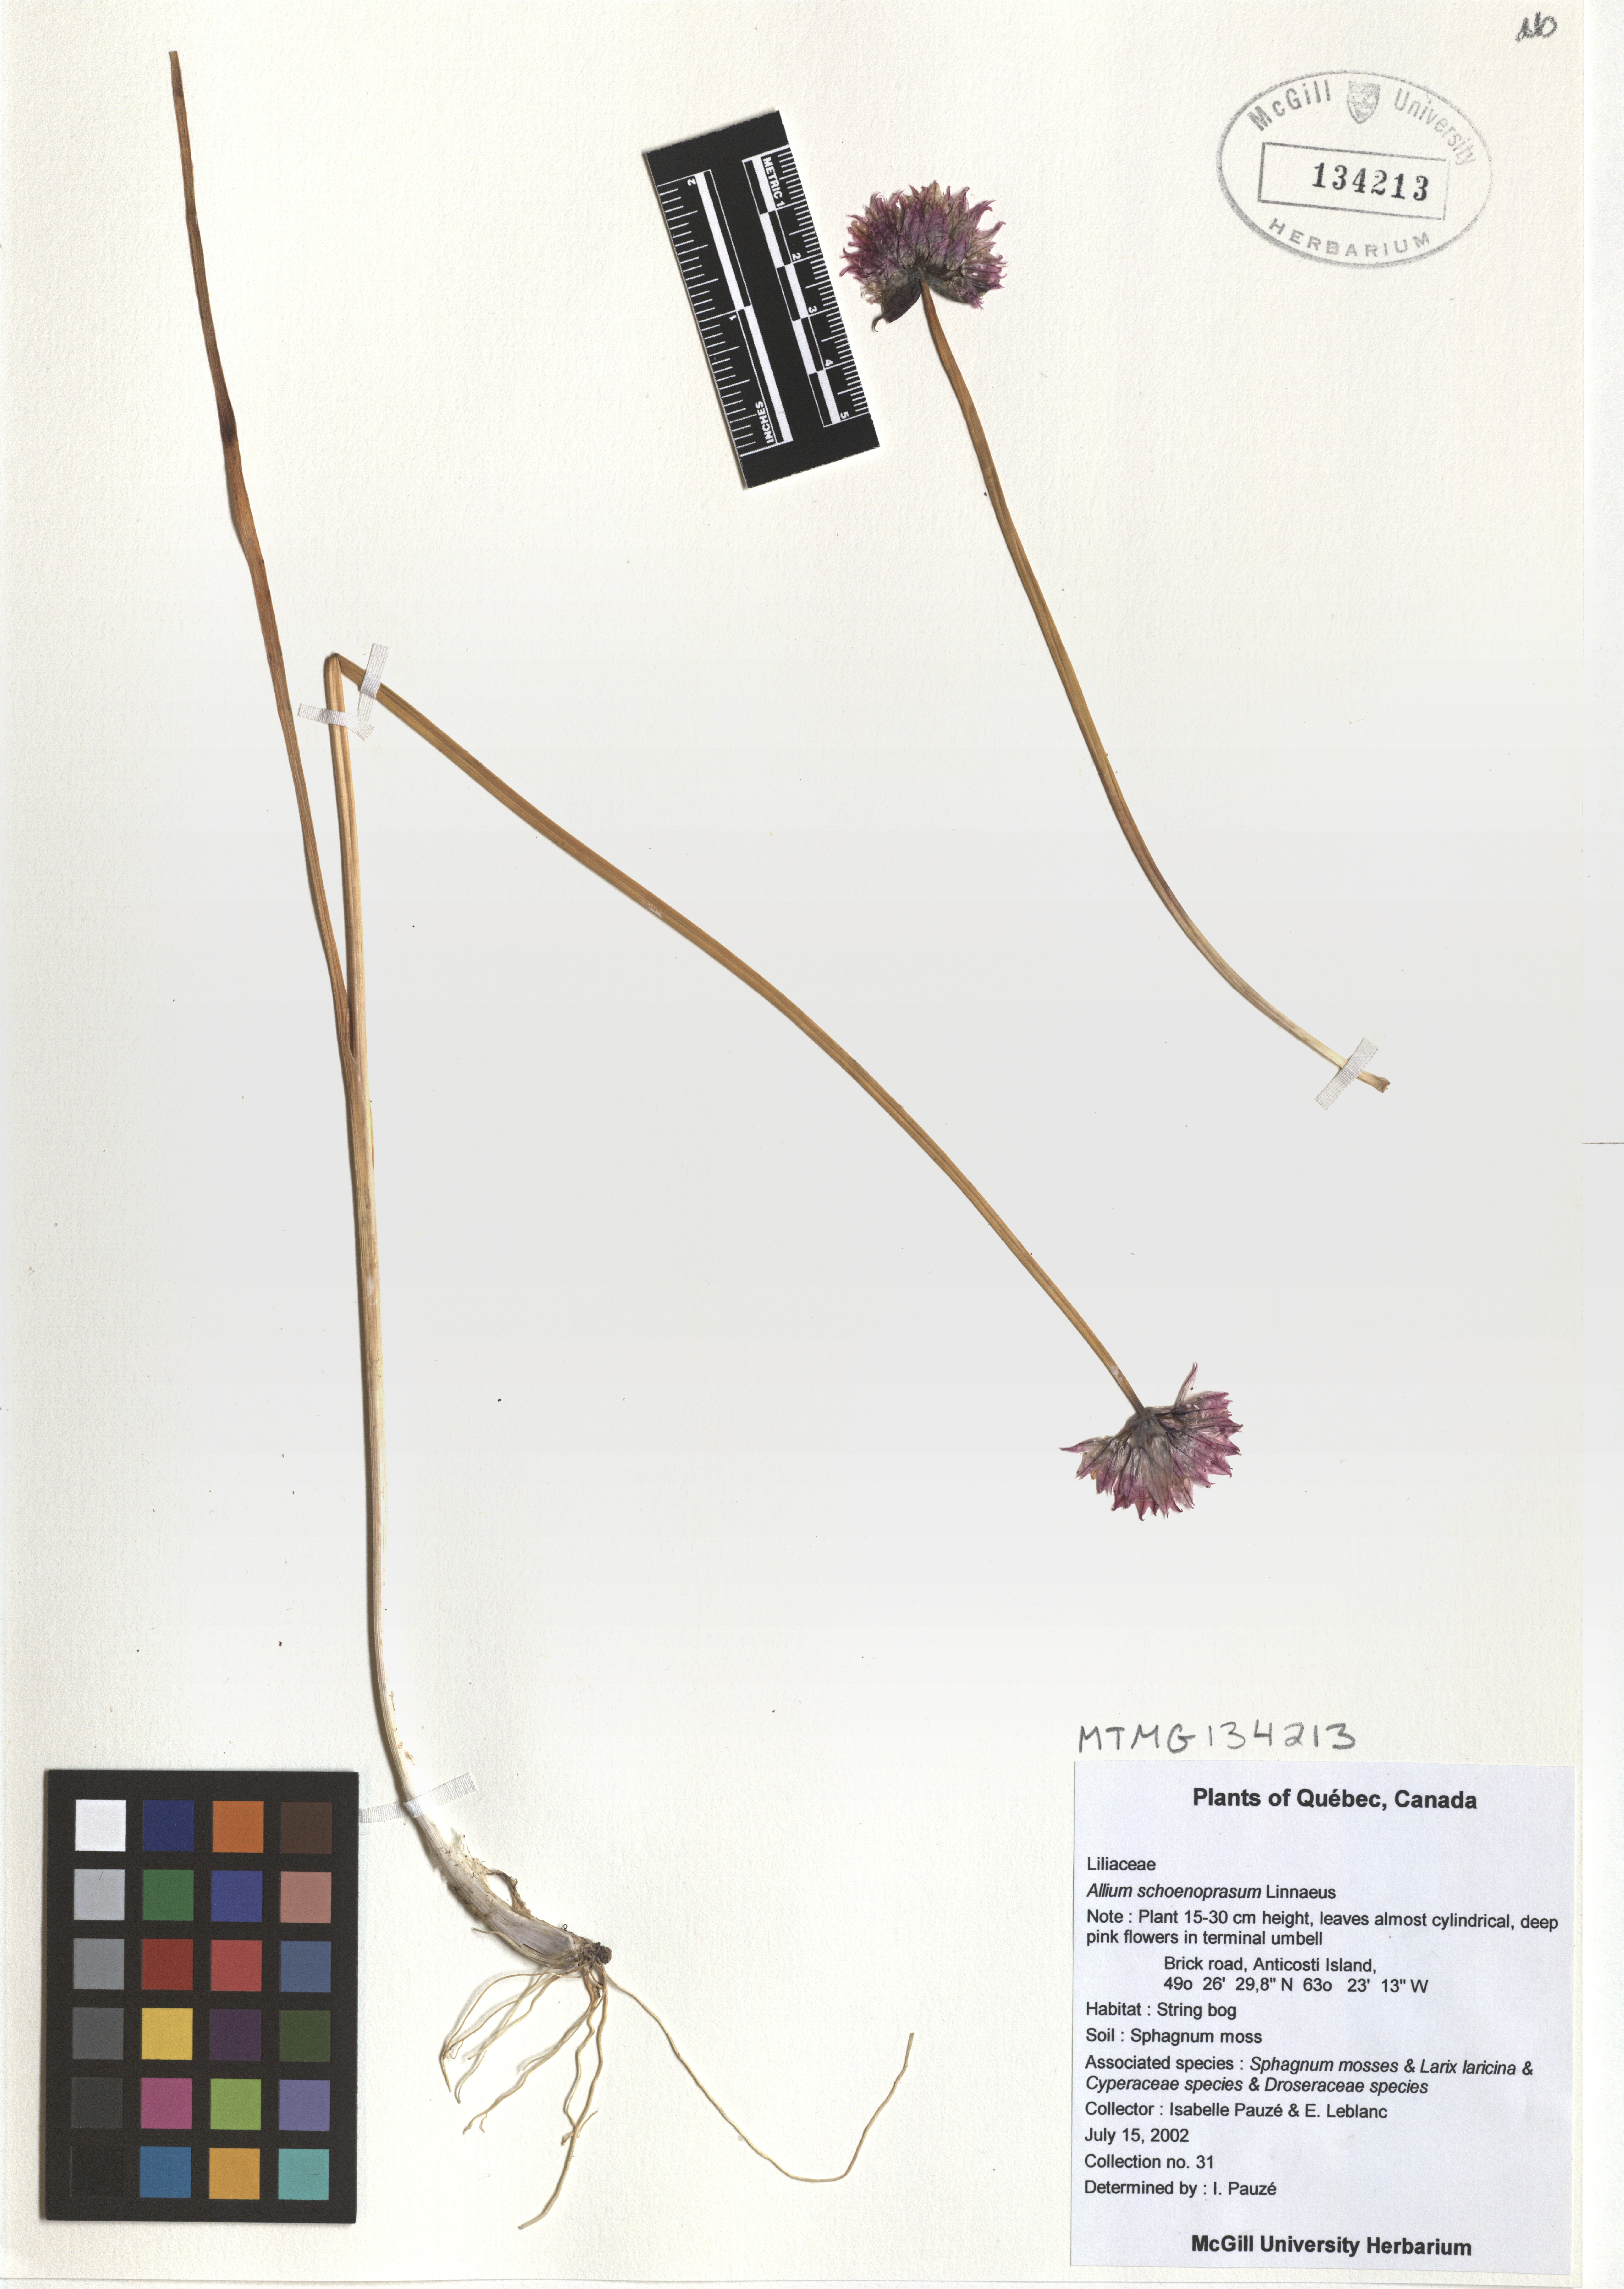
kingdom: Plantae
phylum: Tracheophyta
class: Liliopsida
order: Asparagales
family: Amaryllidaceae
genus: Allium
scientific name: Allium schoenoprasum
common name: Chives
